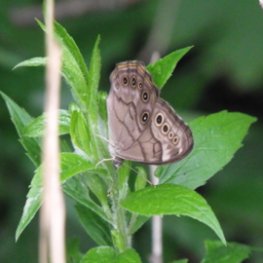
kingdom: Animalia
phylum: Arthropoda
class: Insecta
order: Lepidoptera
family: Nymphalidae
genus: Lethe
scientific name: Lethe anthedon
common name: Northern Pearly-Eye
